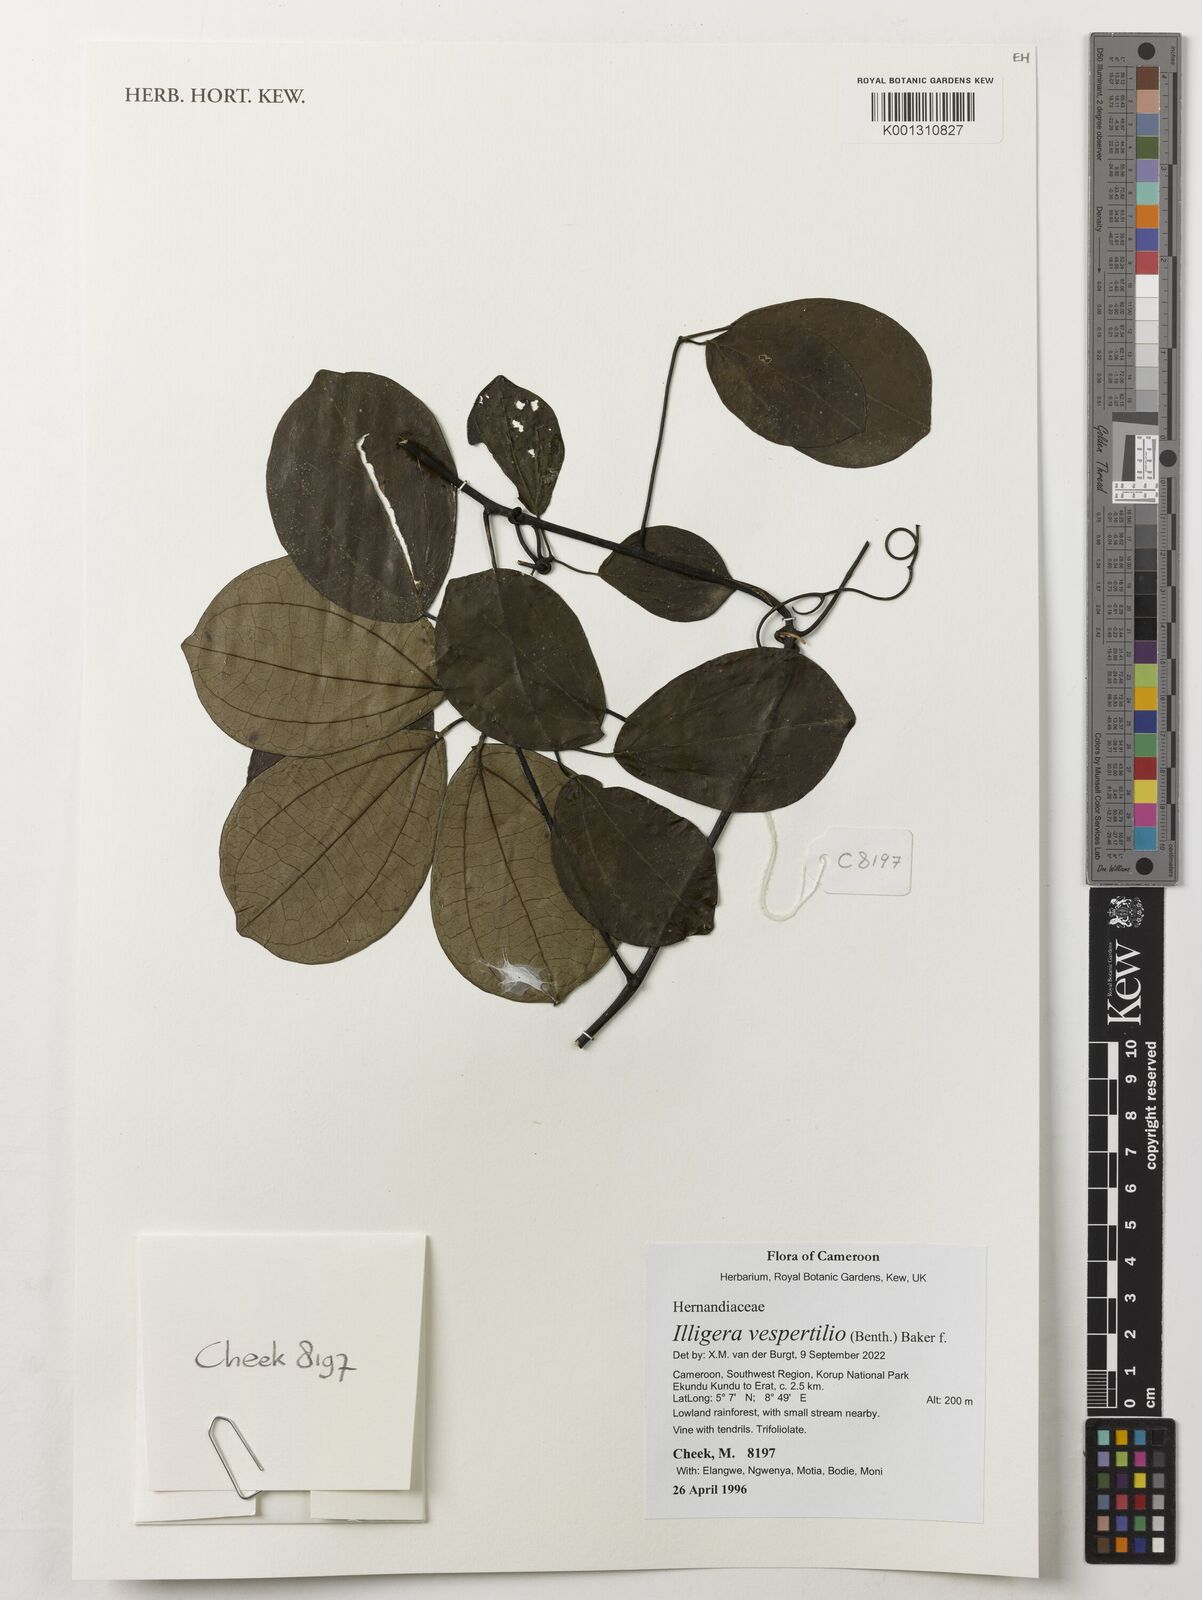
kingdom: Plantae
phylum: Tracheophyta
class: Magnoliopsida
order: Laurales
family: Hernandiaceae
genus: Illigera
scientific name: Illigera vespertilio
